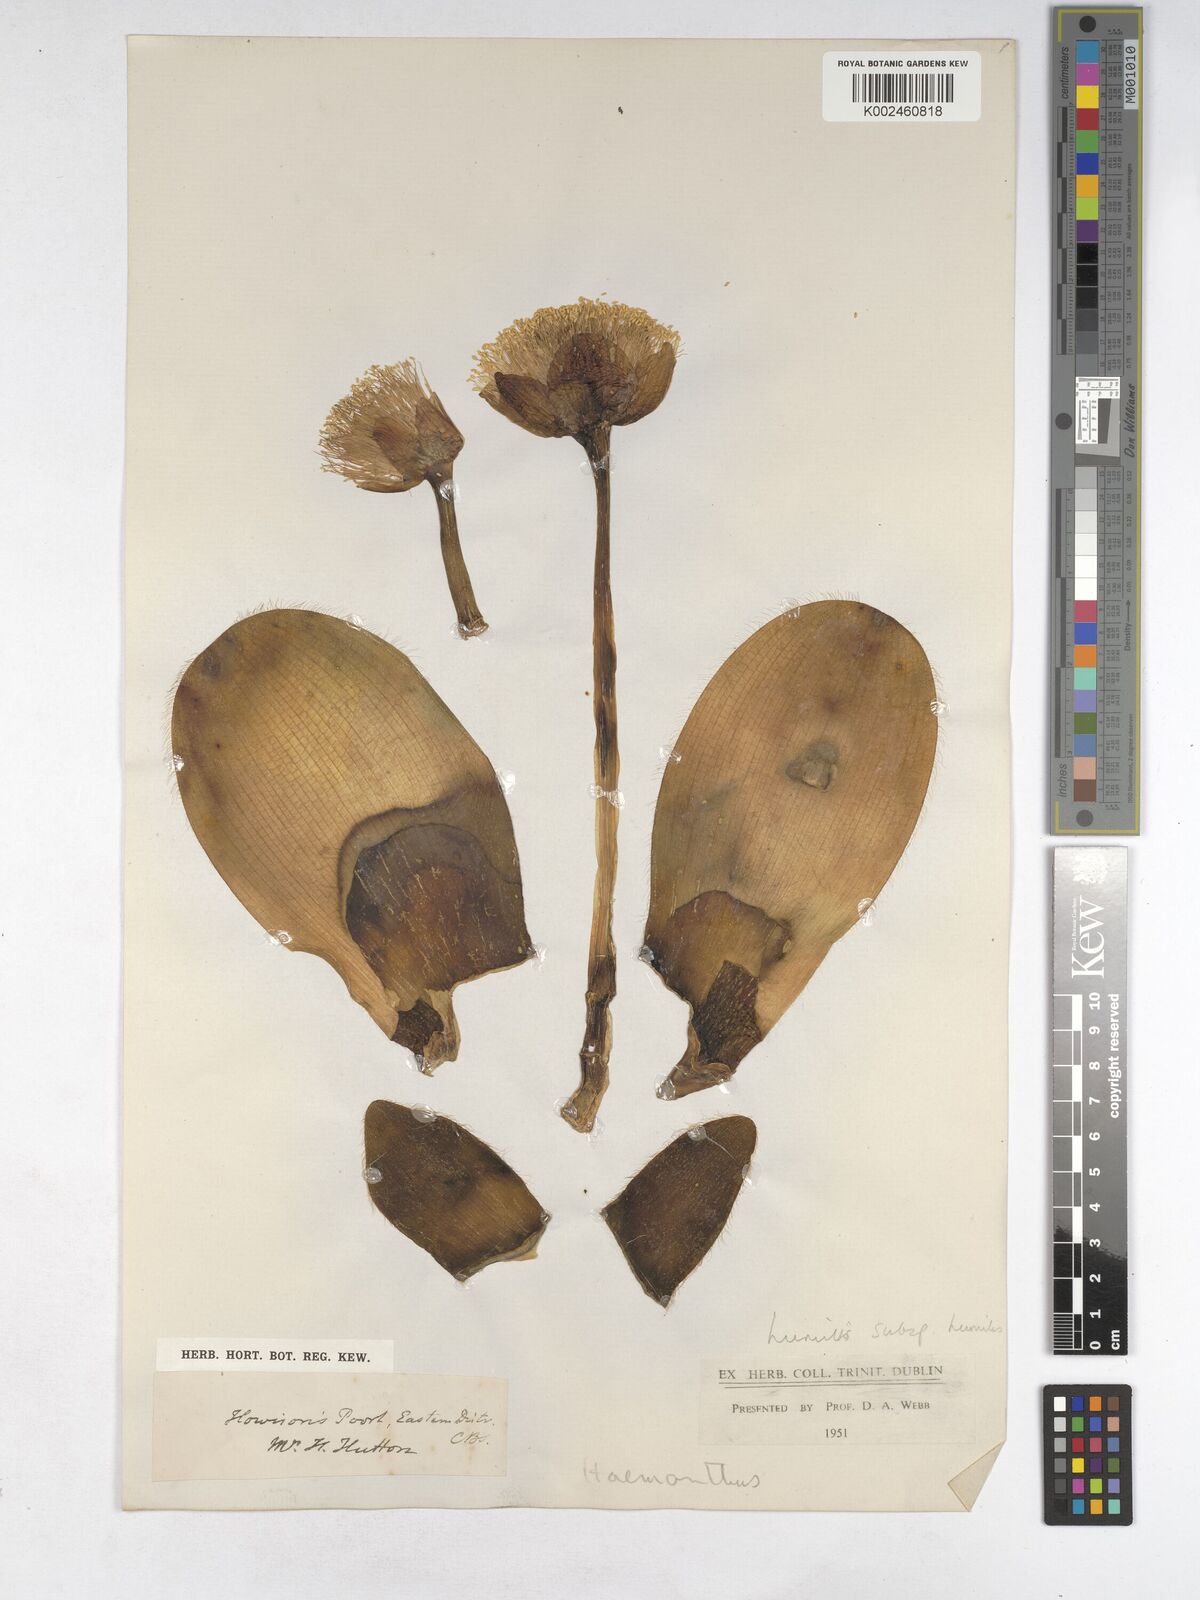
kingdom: Plantae
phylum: Tracheophyta
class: Liliopsida
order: Asparagales
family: Amaryllidaceae
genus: Haemanthus
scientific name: Haemanthus humilis
